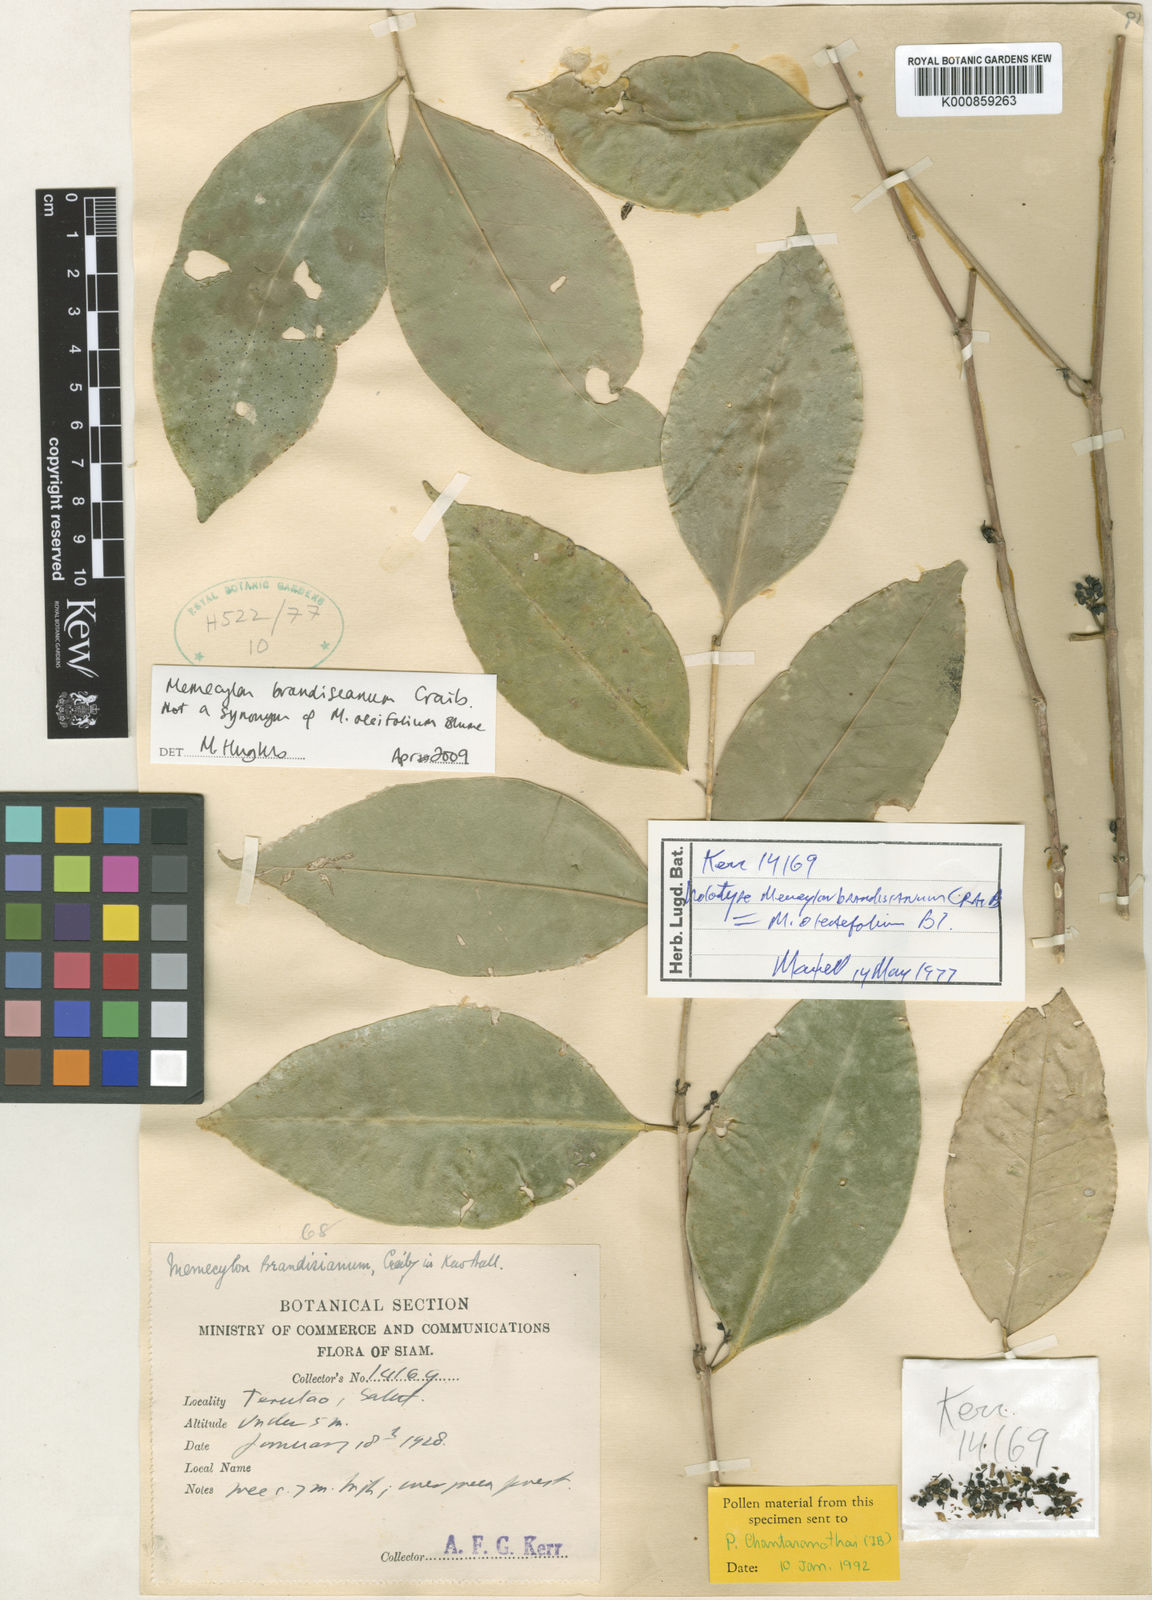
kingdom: Plantae
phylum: Tracheophyta
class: Magnoliopsida
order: Myrtales
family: Melastomataceae
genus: Memecylon
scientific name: Memecylon brandisianum
